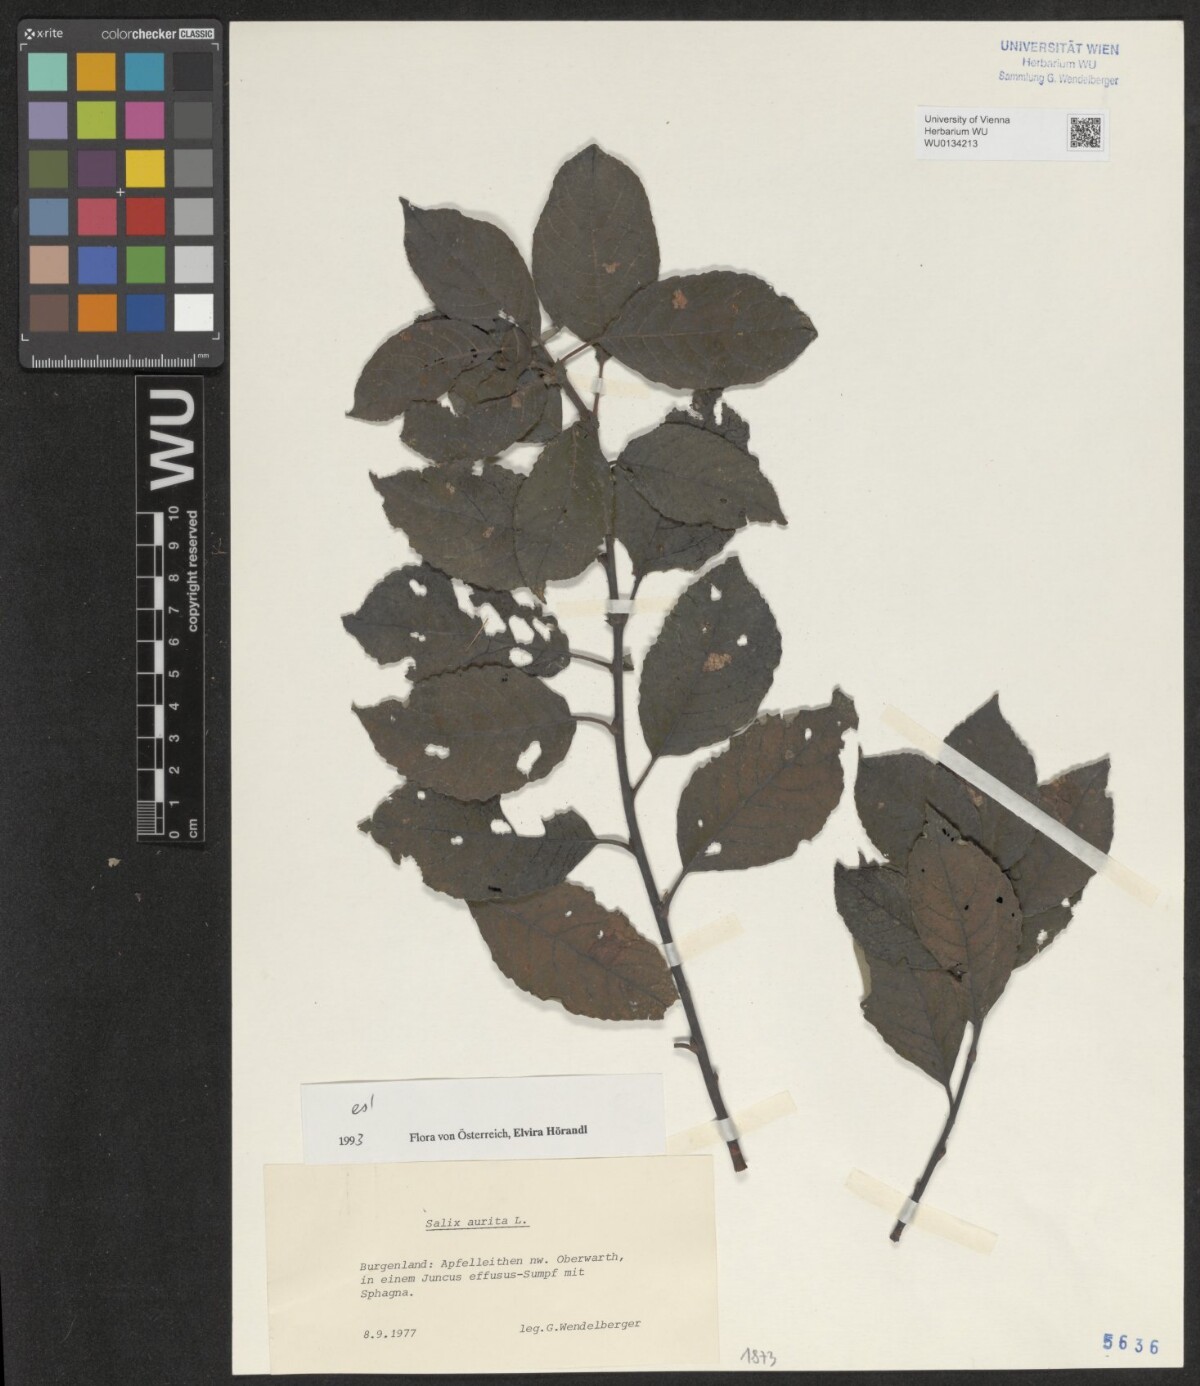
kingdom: Plantae
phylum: Tracheophyta
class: Magnoliopsida
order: Malpighiales
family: Salicaceae
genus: Salix
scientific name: Salix aurita
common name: Eared willow
